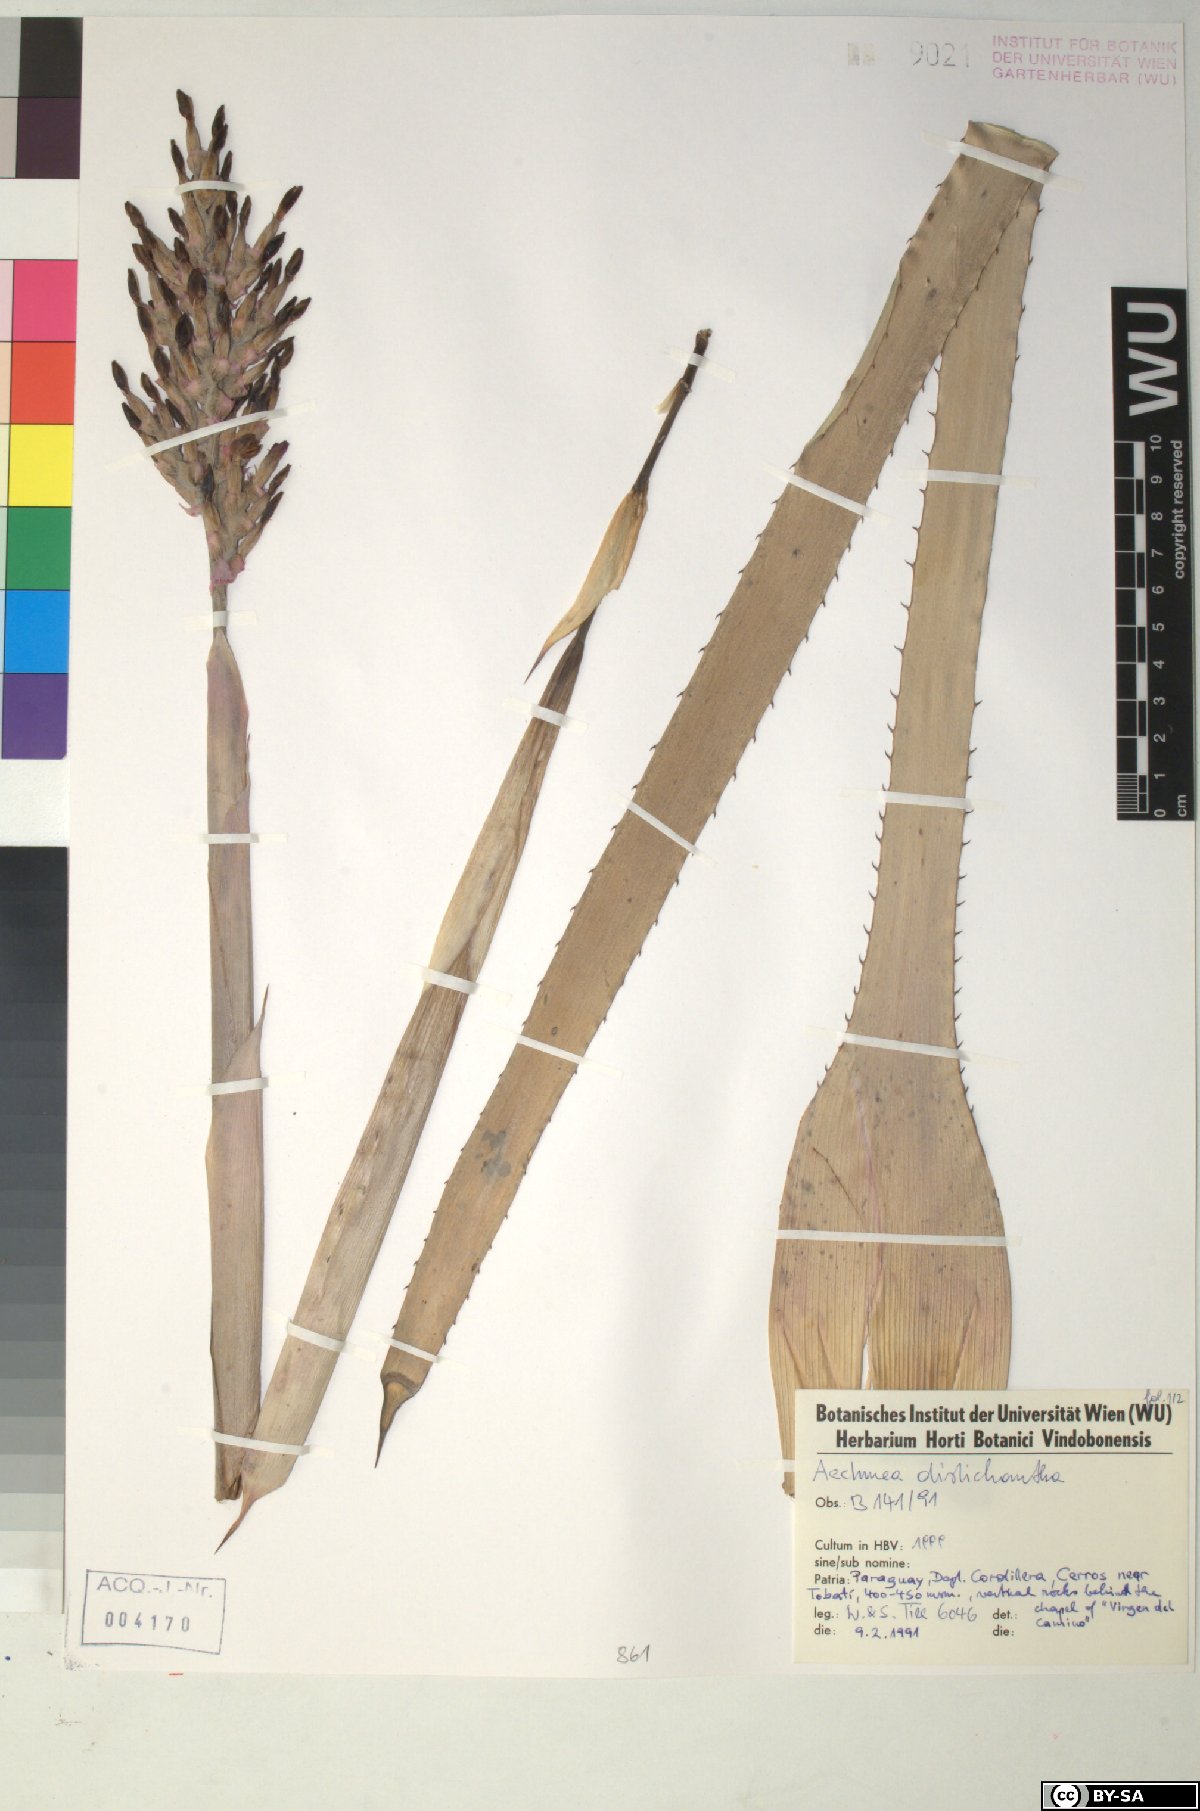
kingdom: Plantae
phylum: Tracheophyta
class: Liliopsida
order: Poales
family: Bromeliaceae
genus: Aechmea
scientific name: Aechmea distichantha
